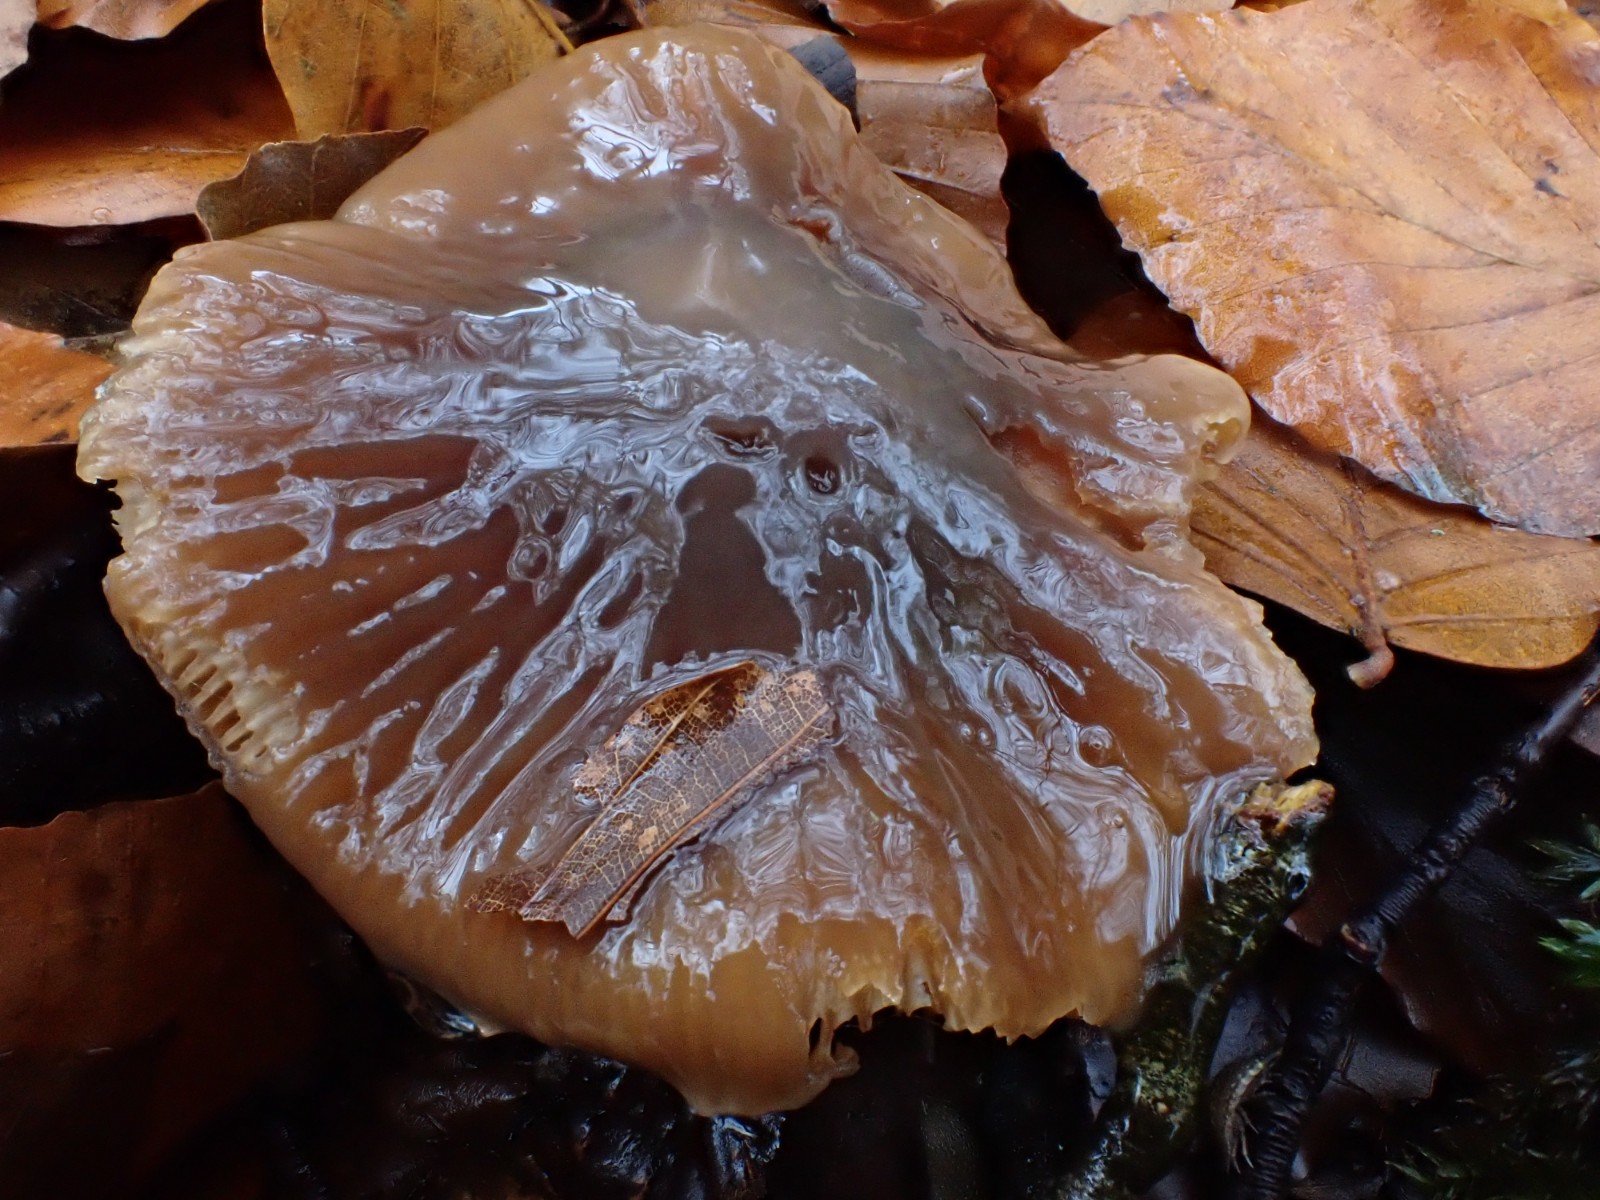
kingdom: Fungi
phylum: Basidiomycota
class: Agaricomycetes
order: Agaricales
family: Cortinariaceae
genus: Cortinarius
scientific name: Cortinarius elatior
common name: høj slørhat
